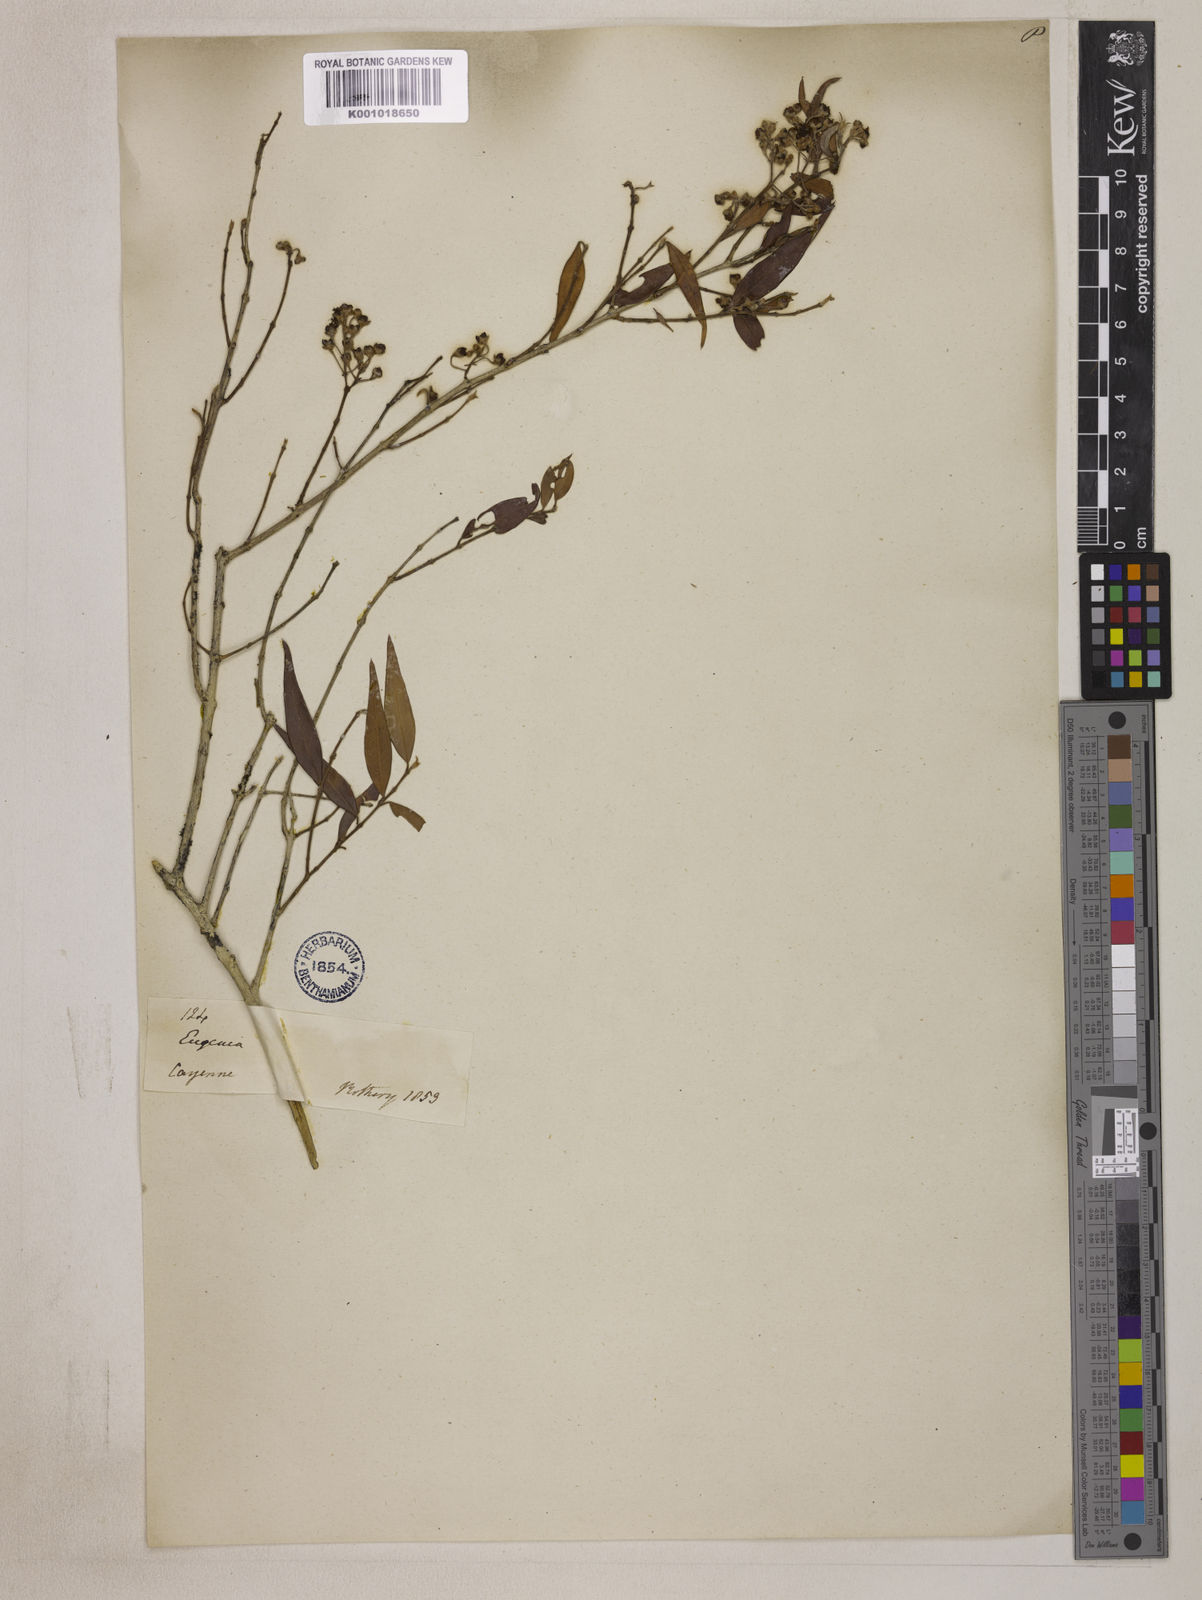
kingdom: Plantae
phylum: Tracheophyta
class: Magnoliopsida
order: Myrtales
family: Myrtaceae
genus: Eugenia
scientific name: Eugenia biflora
